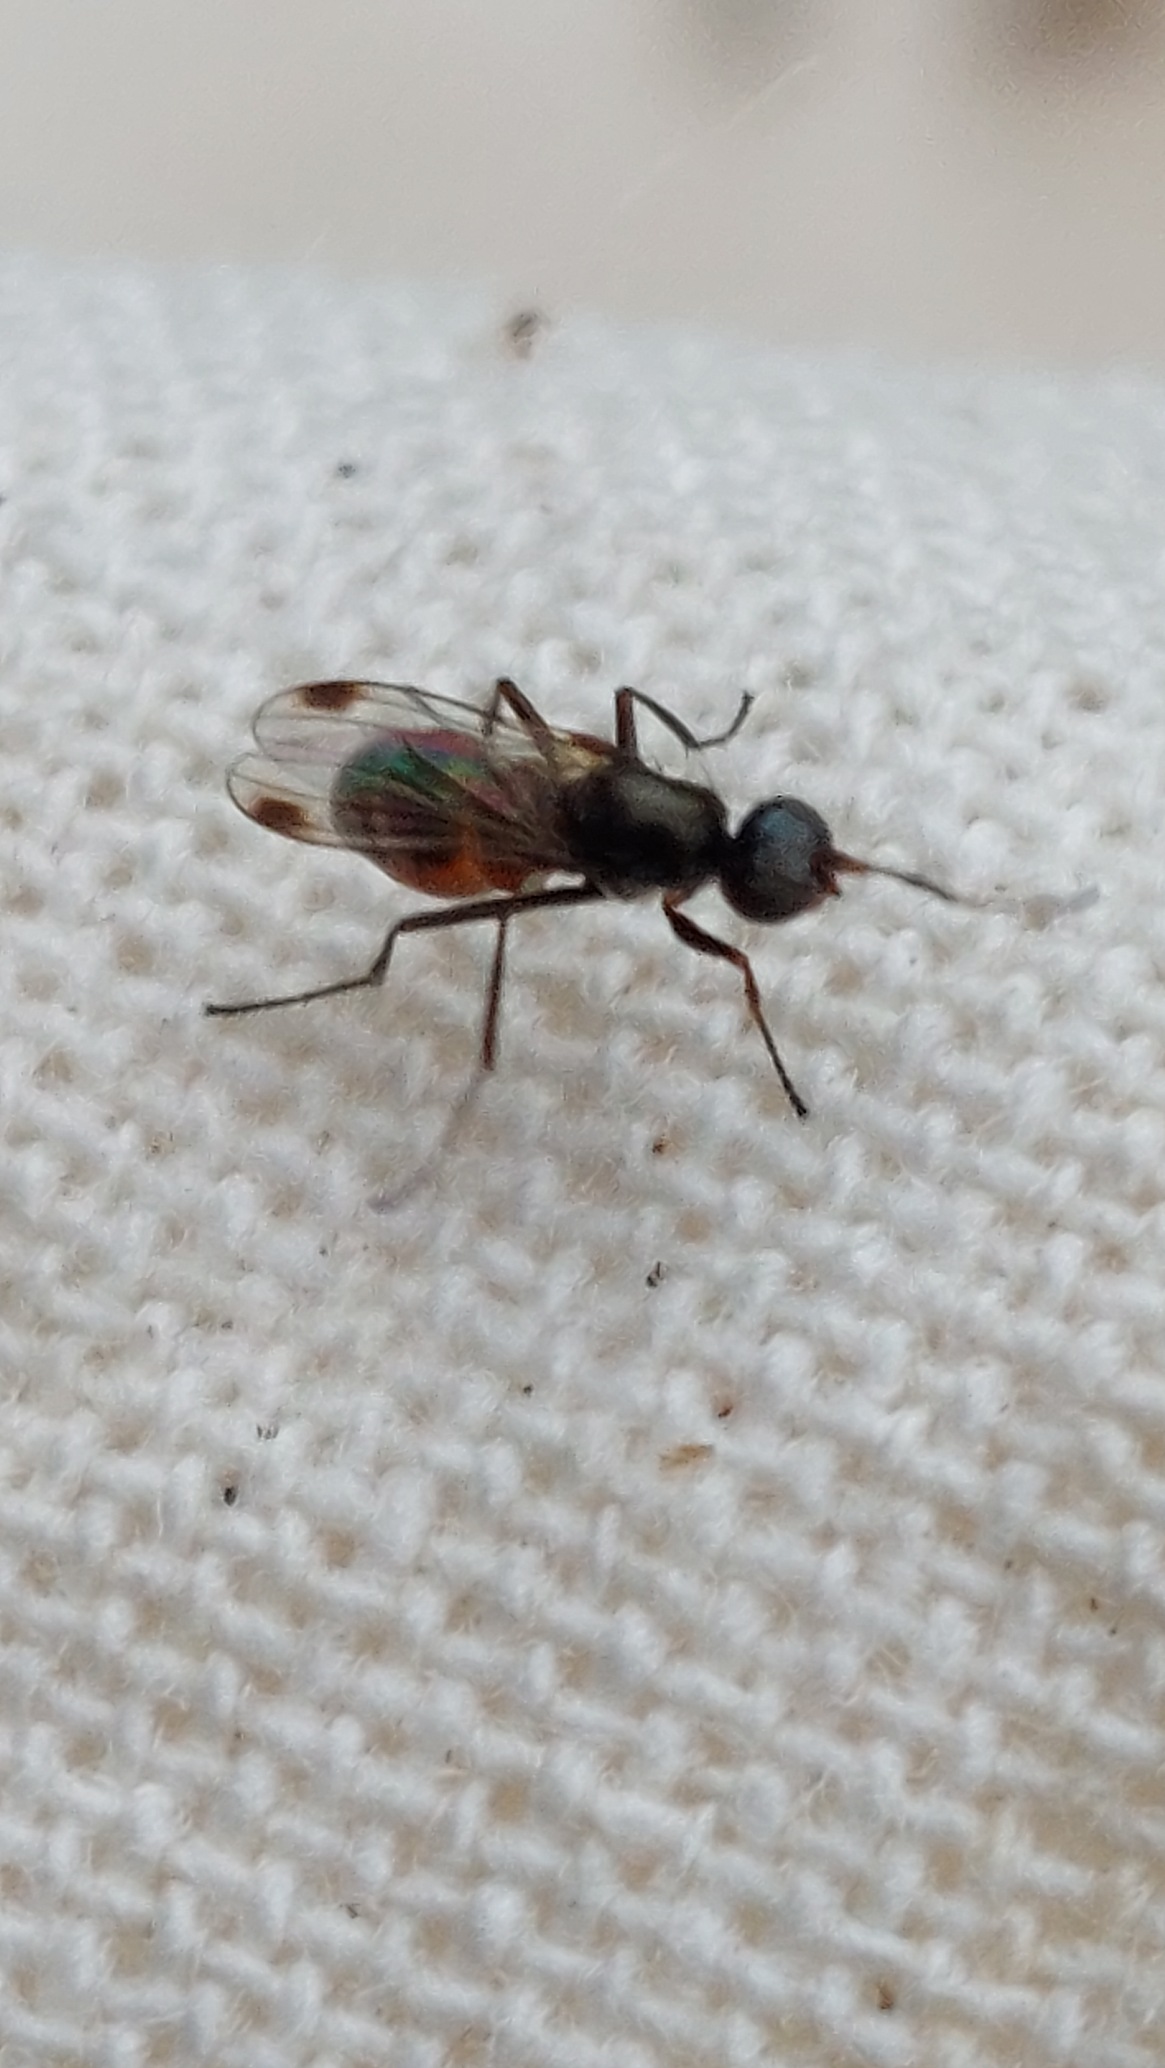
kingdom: Animalia
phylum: Arthropoda
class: Insecta
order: Diptera
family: Sepsidae
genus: Sepsis
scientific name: Sepsis
